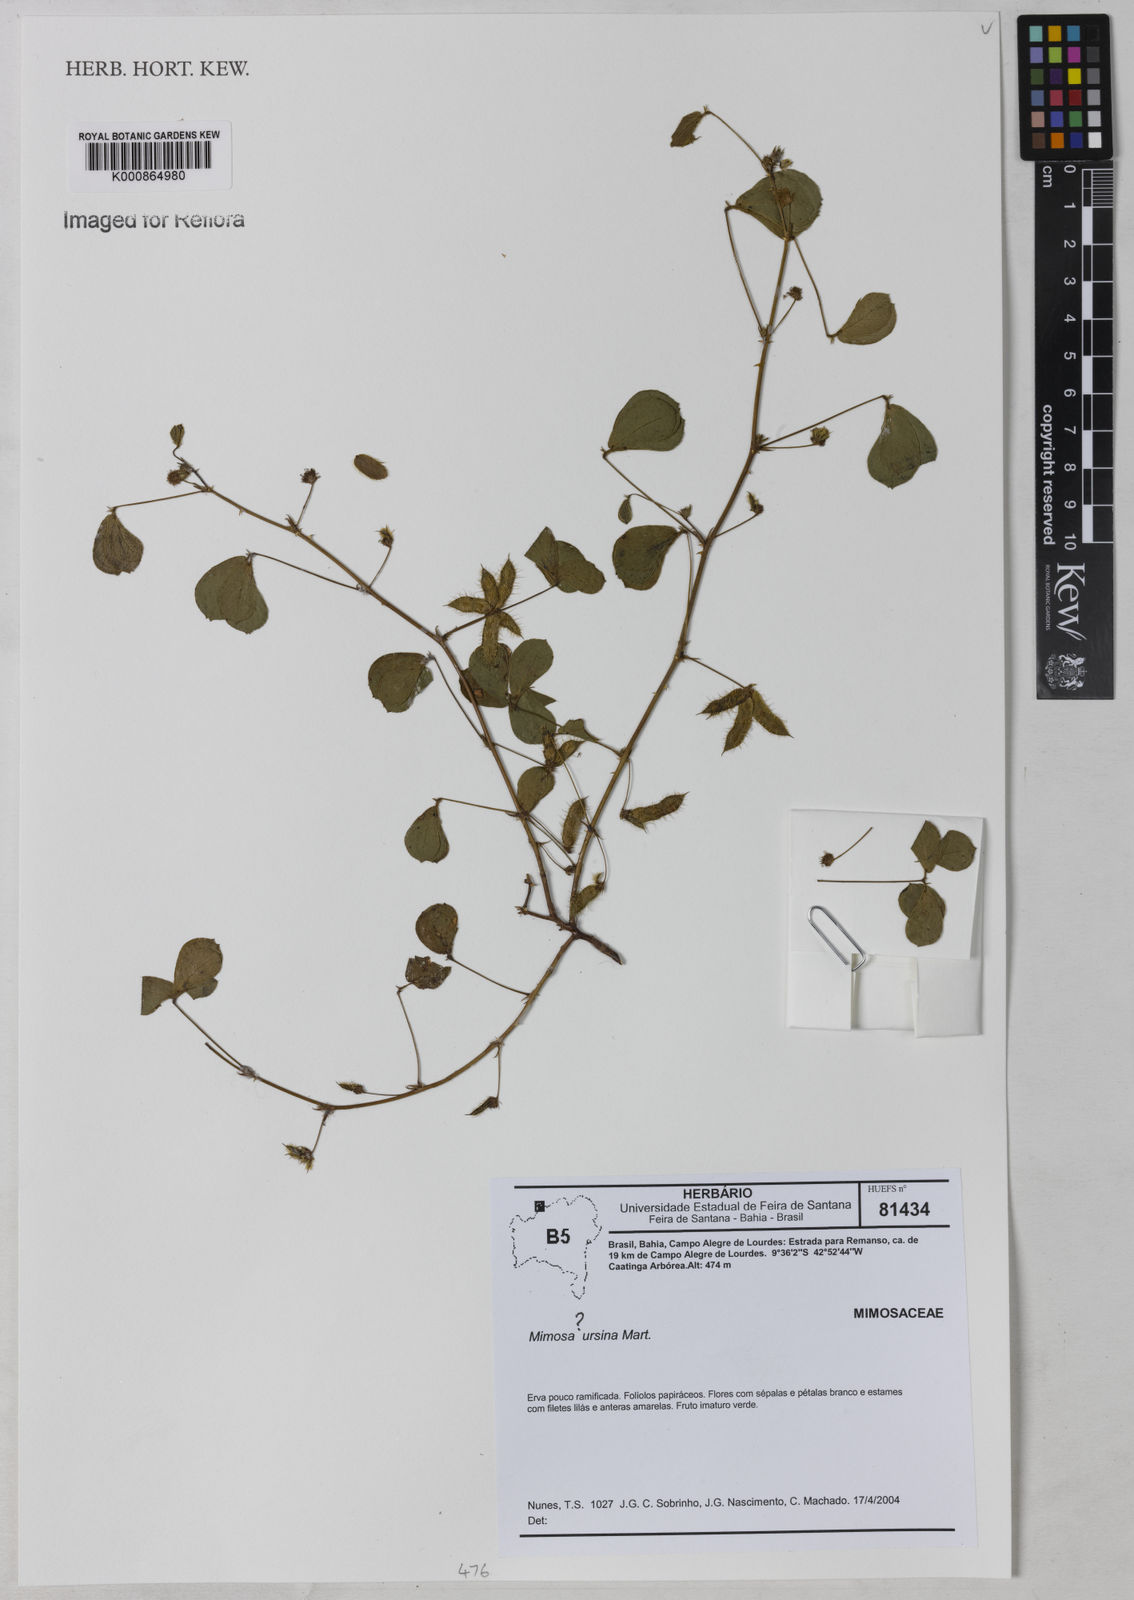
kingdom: Plantae
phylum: Tracheophyta
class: Magnoliopsida
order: Fabales
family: Fabaceae
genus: Mimosa
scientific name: Mimosa ursina
